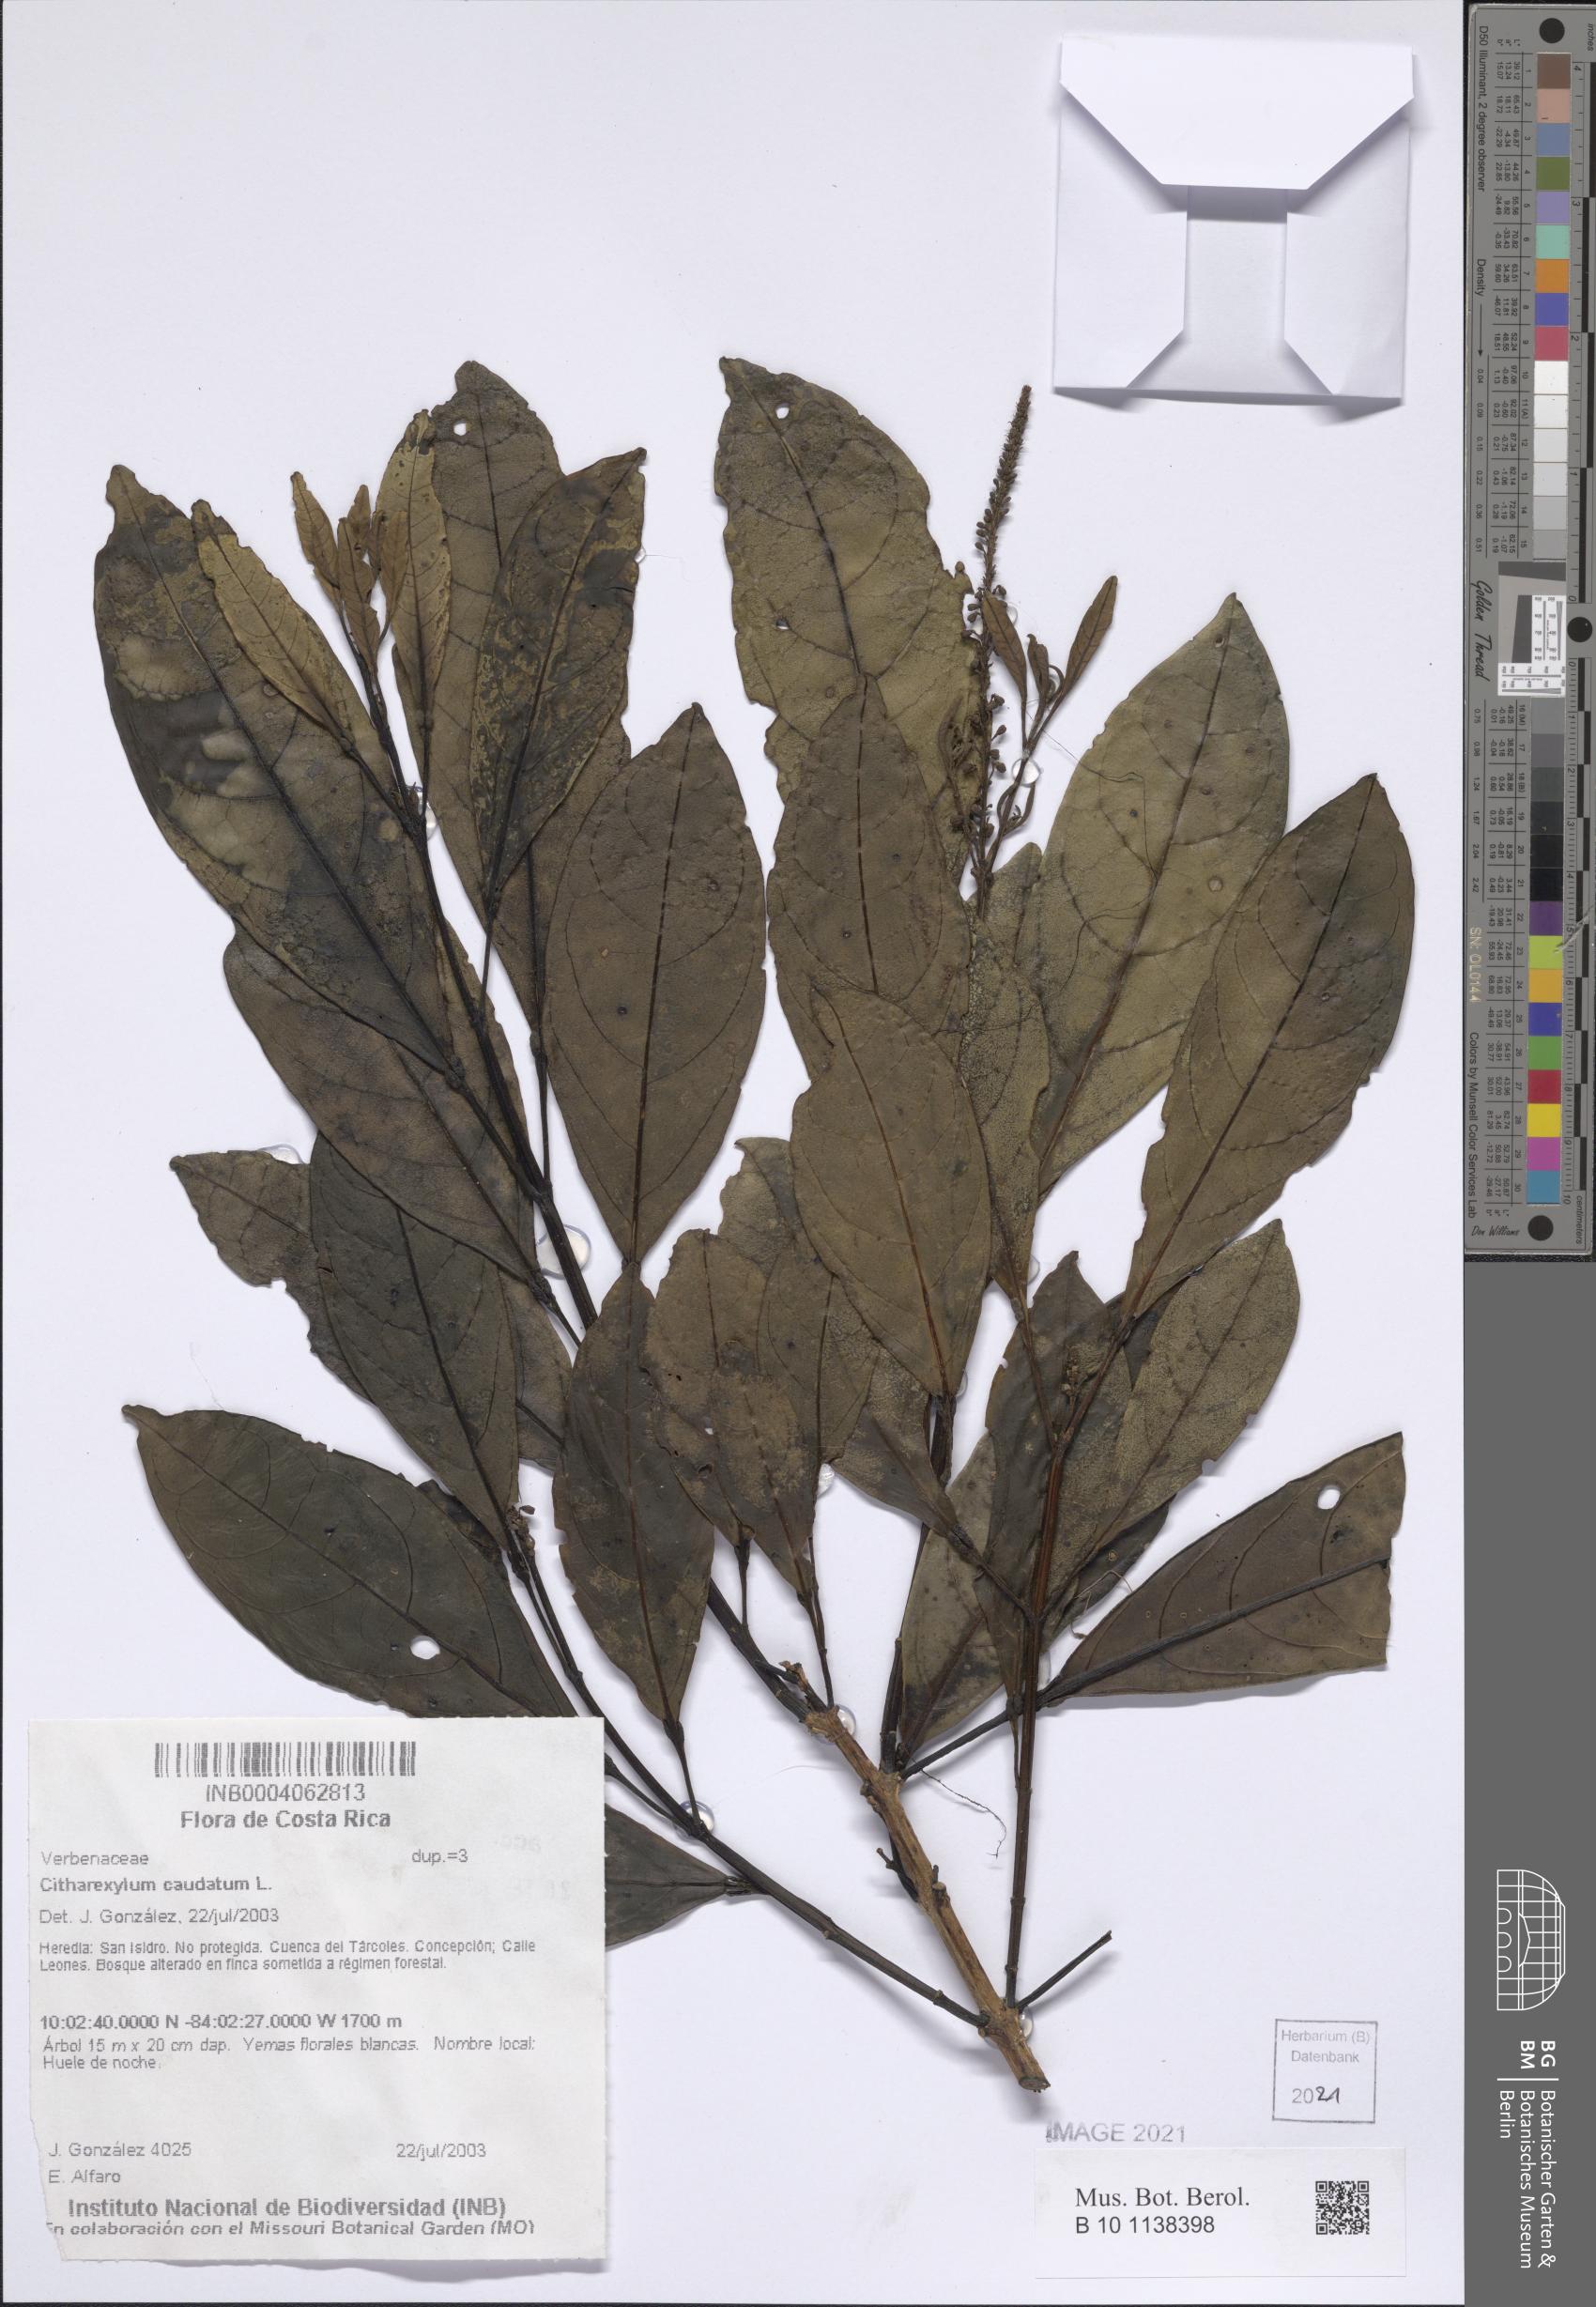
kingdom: Plantae
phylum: Tracheophyta
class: Magnoliopsida
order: Lamiales
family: Verbenaceae
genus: Citharexylum
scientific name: Citharexylum macradenium
